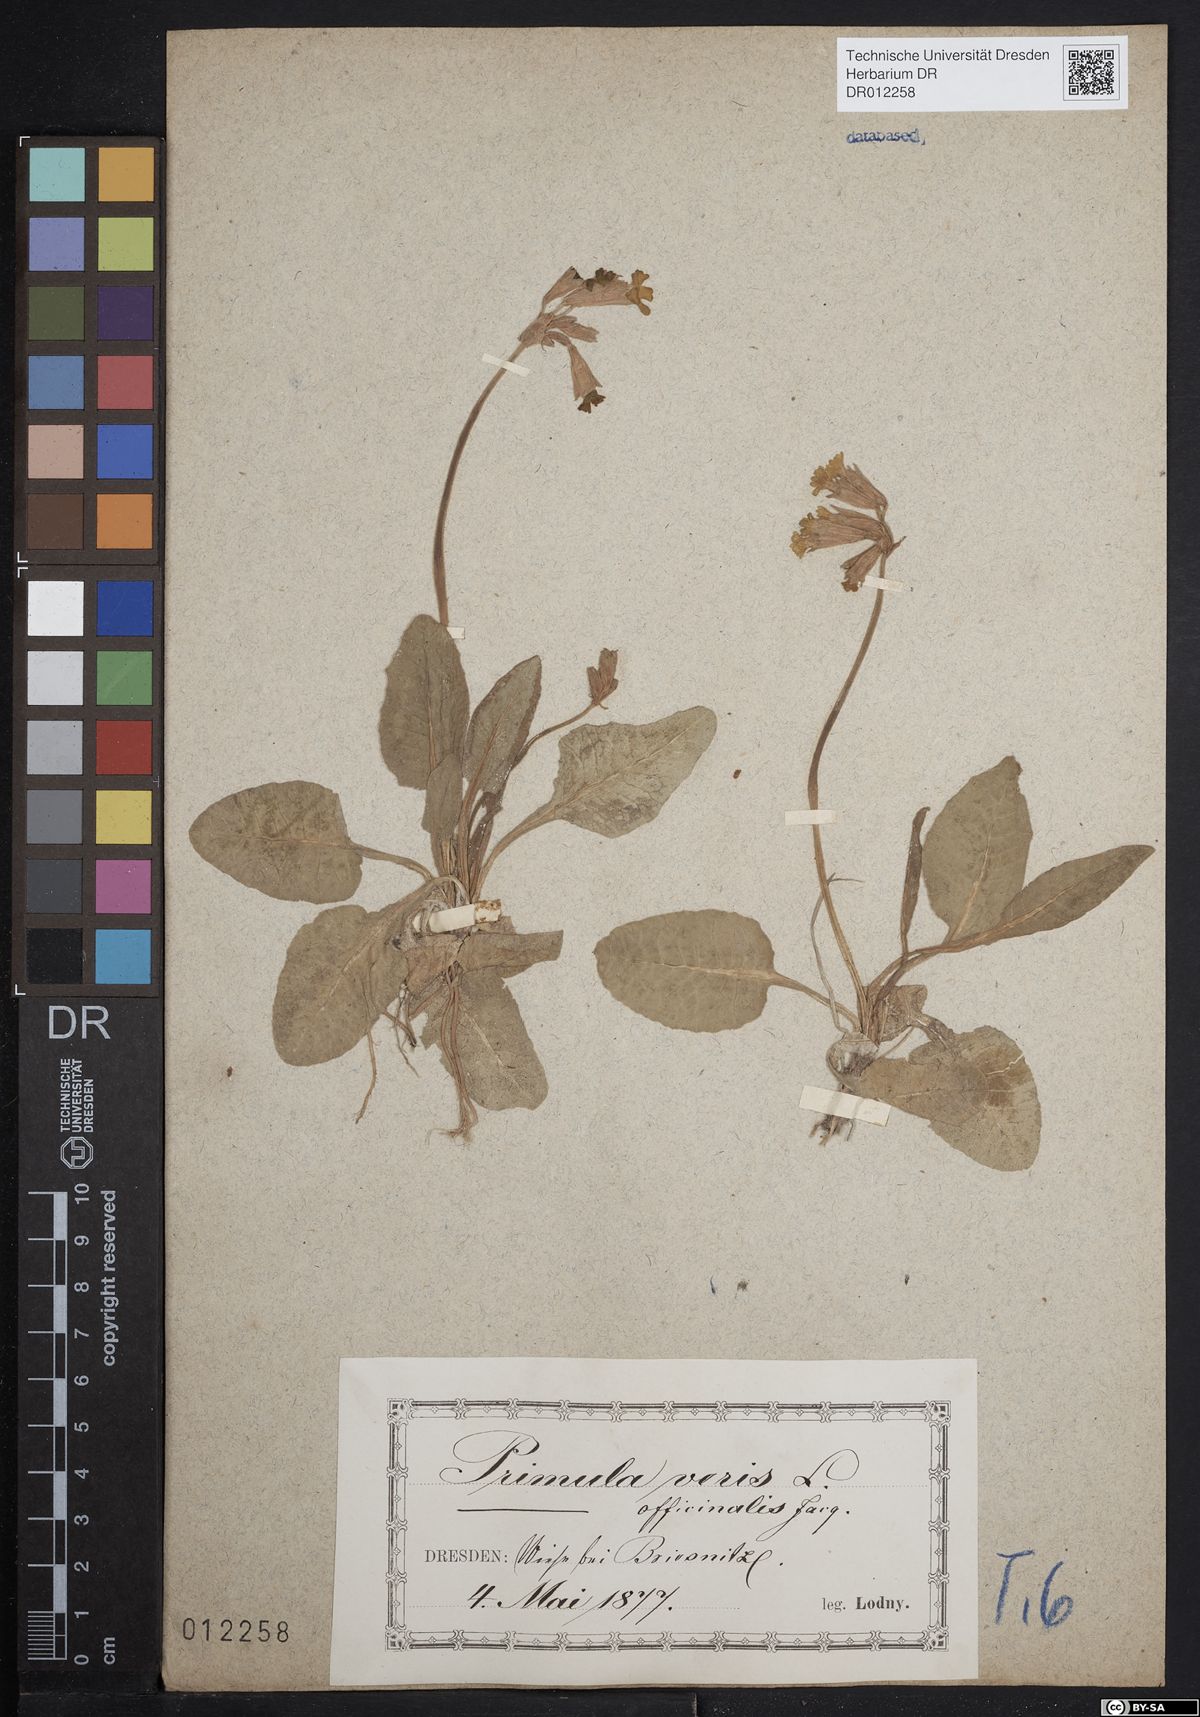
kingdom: Plantae
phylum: Tracheophyta
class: Magnoliopsida
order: Ericales
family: Primulaceae
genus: Primula
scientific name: Primula veris
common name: Cowslip
